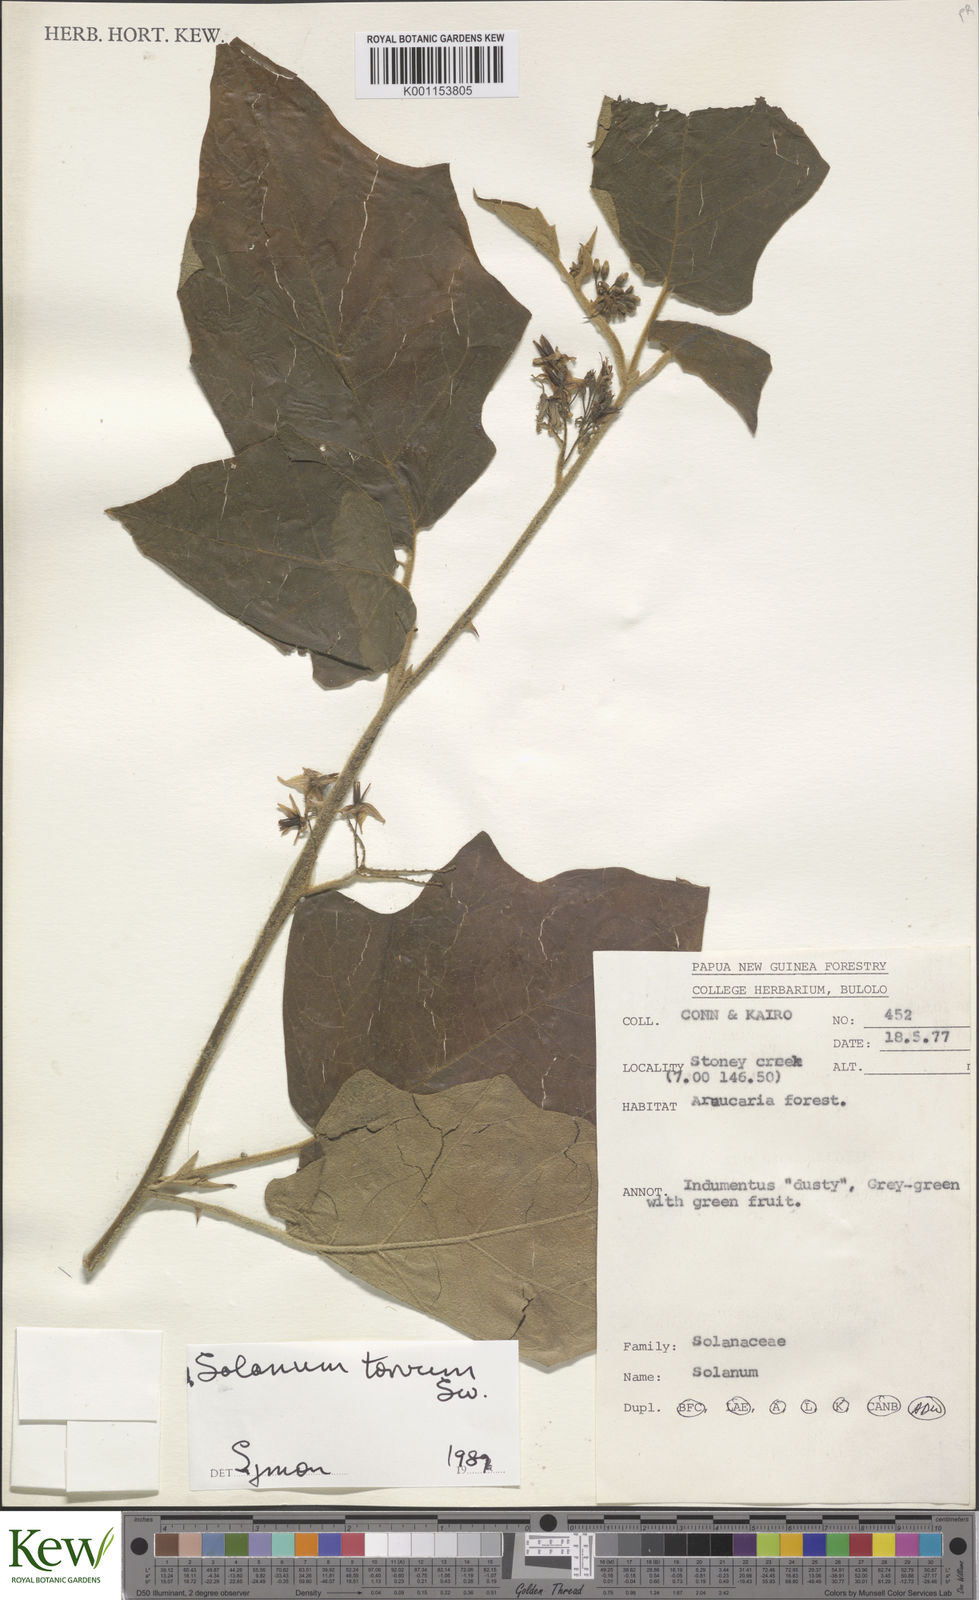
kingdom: Plantae
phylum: Tracheophyta
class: Magnoliopsida
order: Solanales
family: Solanaceae
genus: Solanum
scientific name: Solanum torvum
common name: Turkey berry
